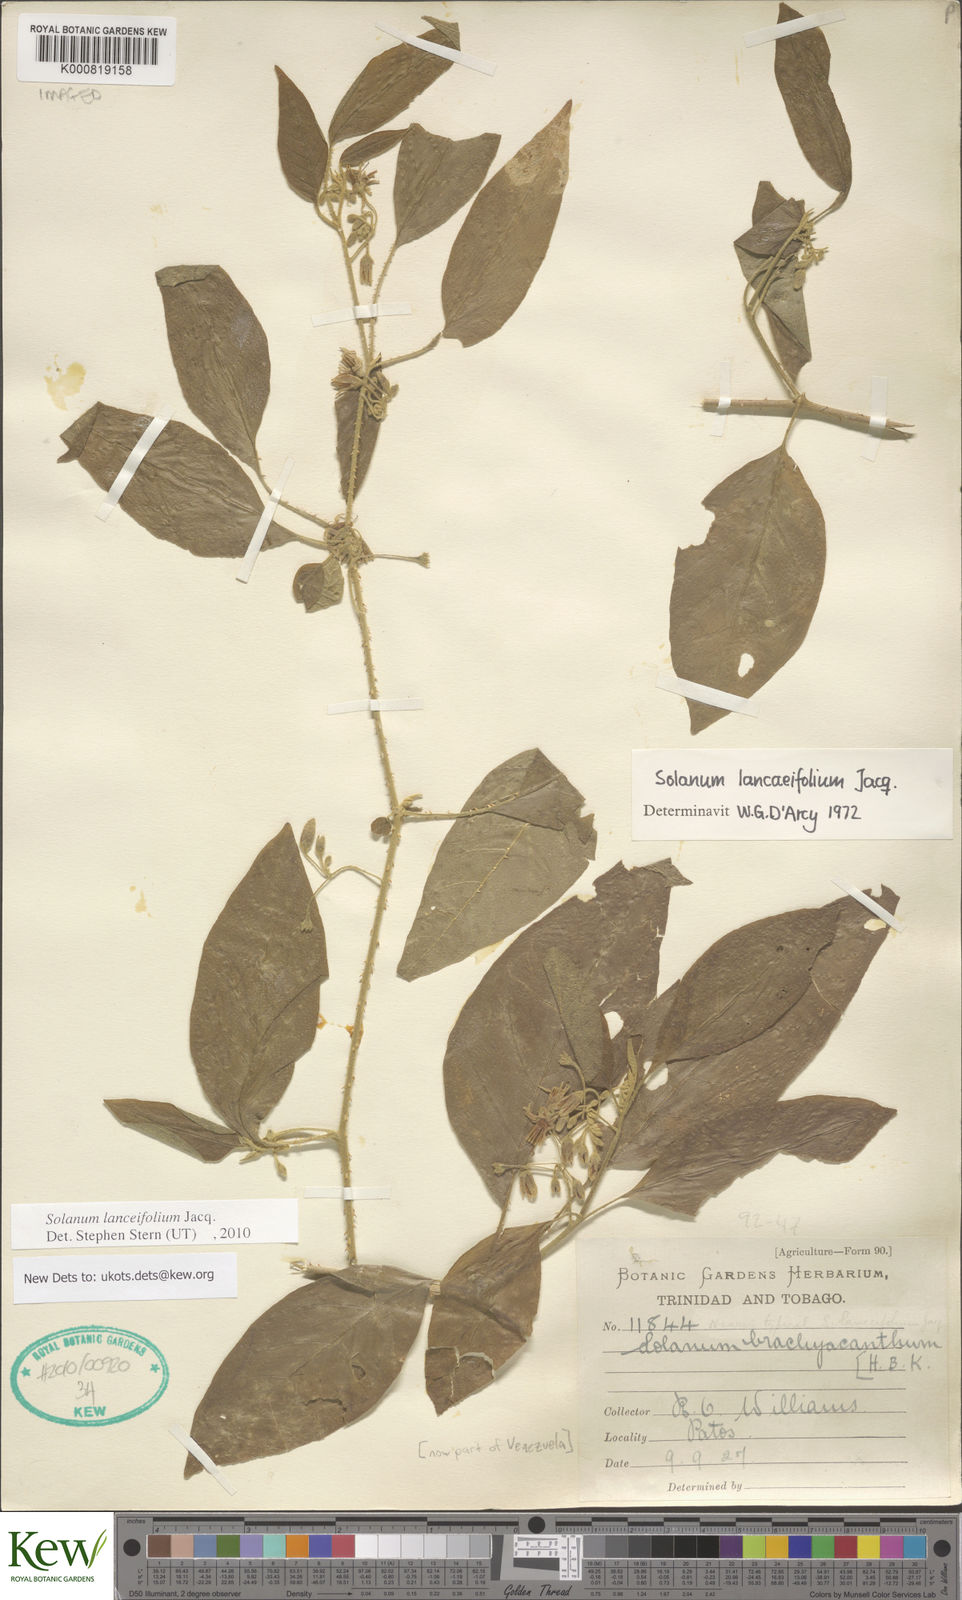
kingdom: Plantae
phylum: Tracheophyta
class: Magnoliopsida
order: Solanales
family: Solanaceae
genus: Solanum
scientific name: Solanum
